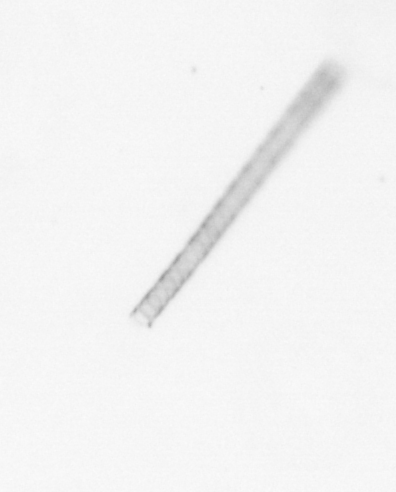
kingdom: Chromista
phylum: Ochrophyta
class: Bacillariophyceae
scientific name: Bacillariophyceae
